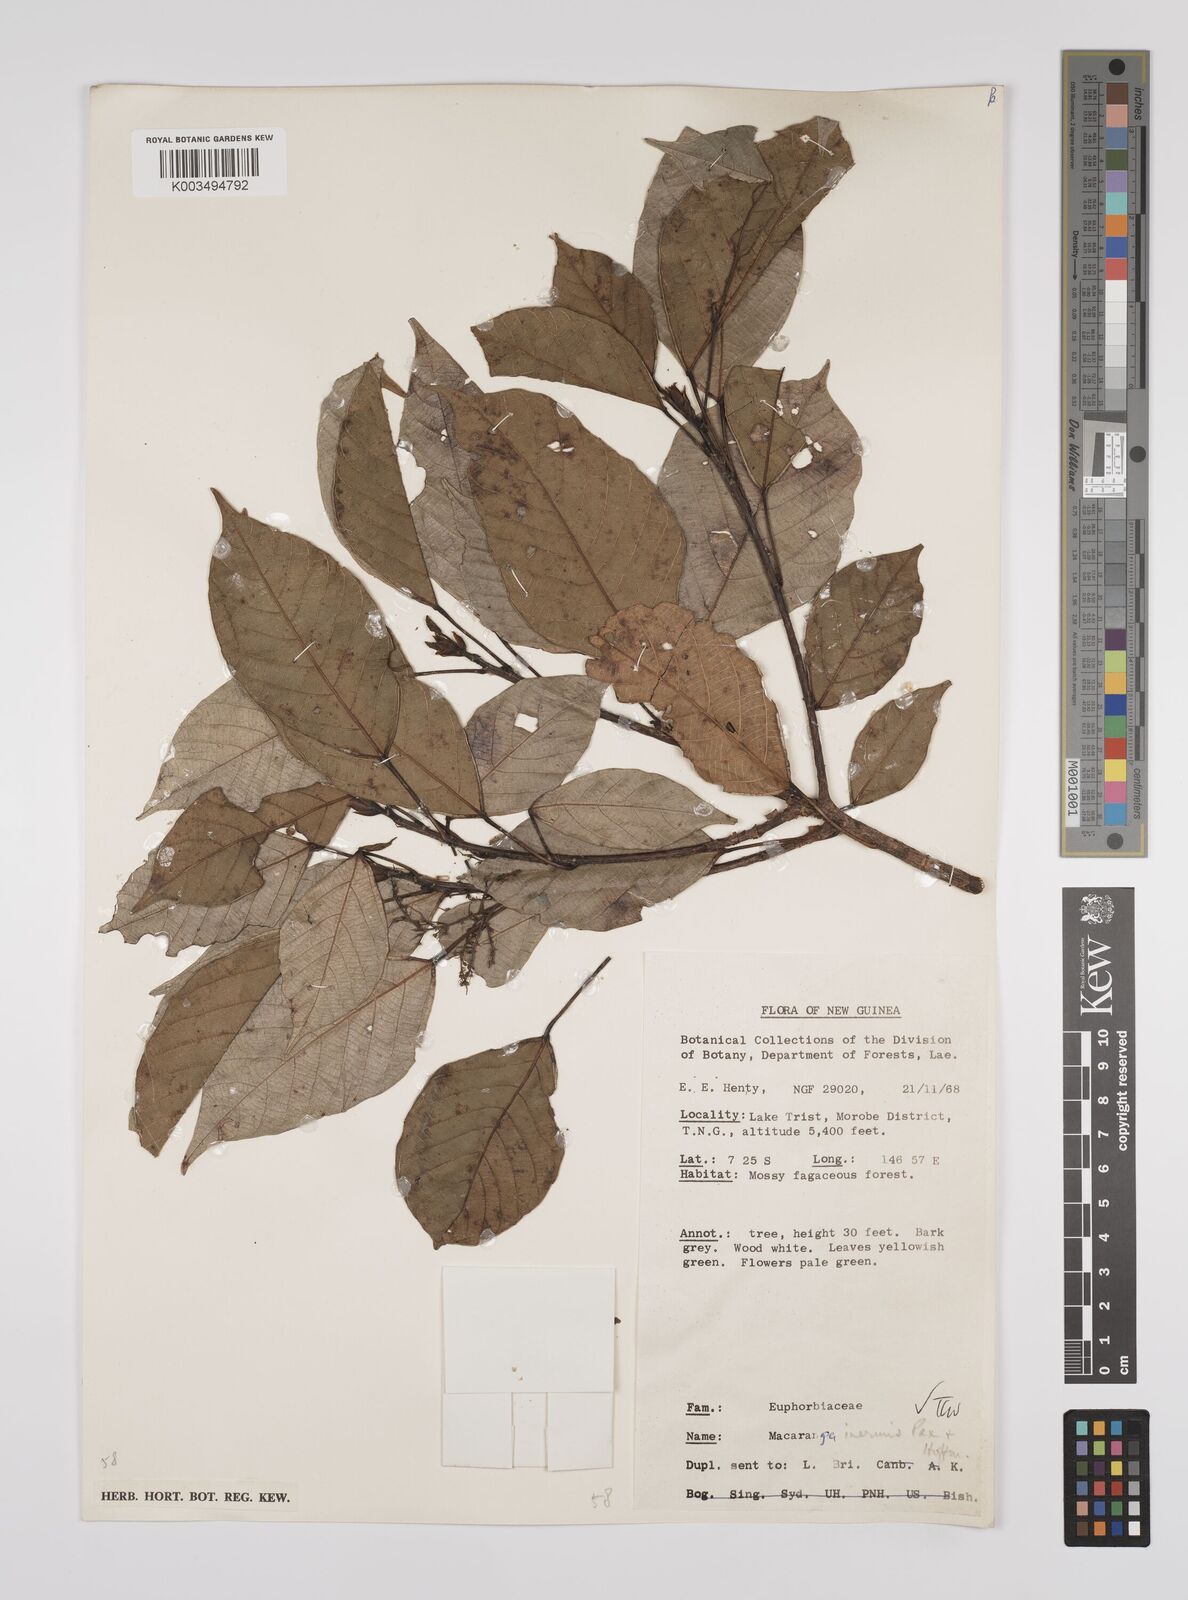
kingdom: Plantae
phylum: Tracheophyta
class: Magnoliopsida
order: Malpighiales
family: Euphorbiaceae
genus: Macaranga
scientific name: Macaranga inermis
